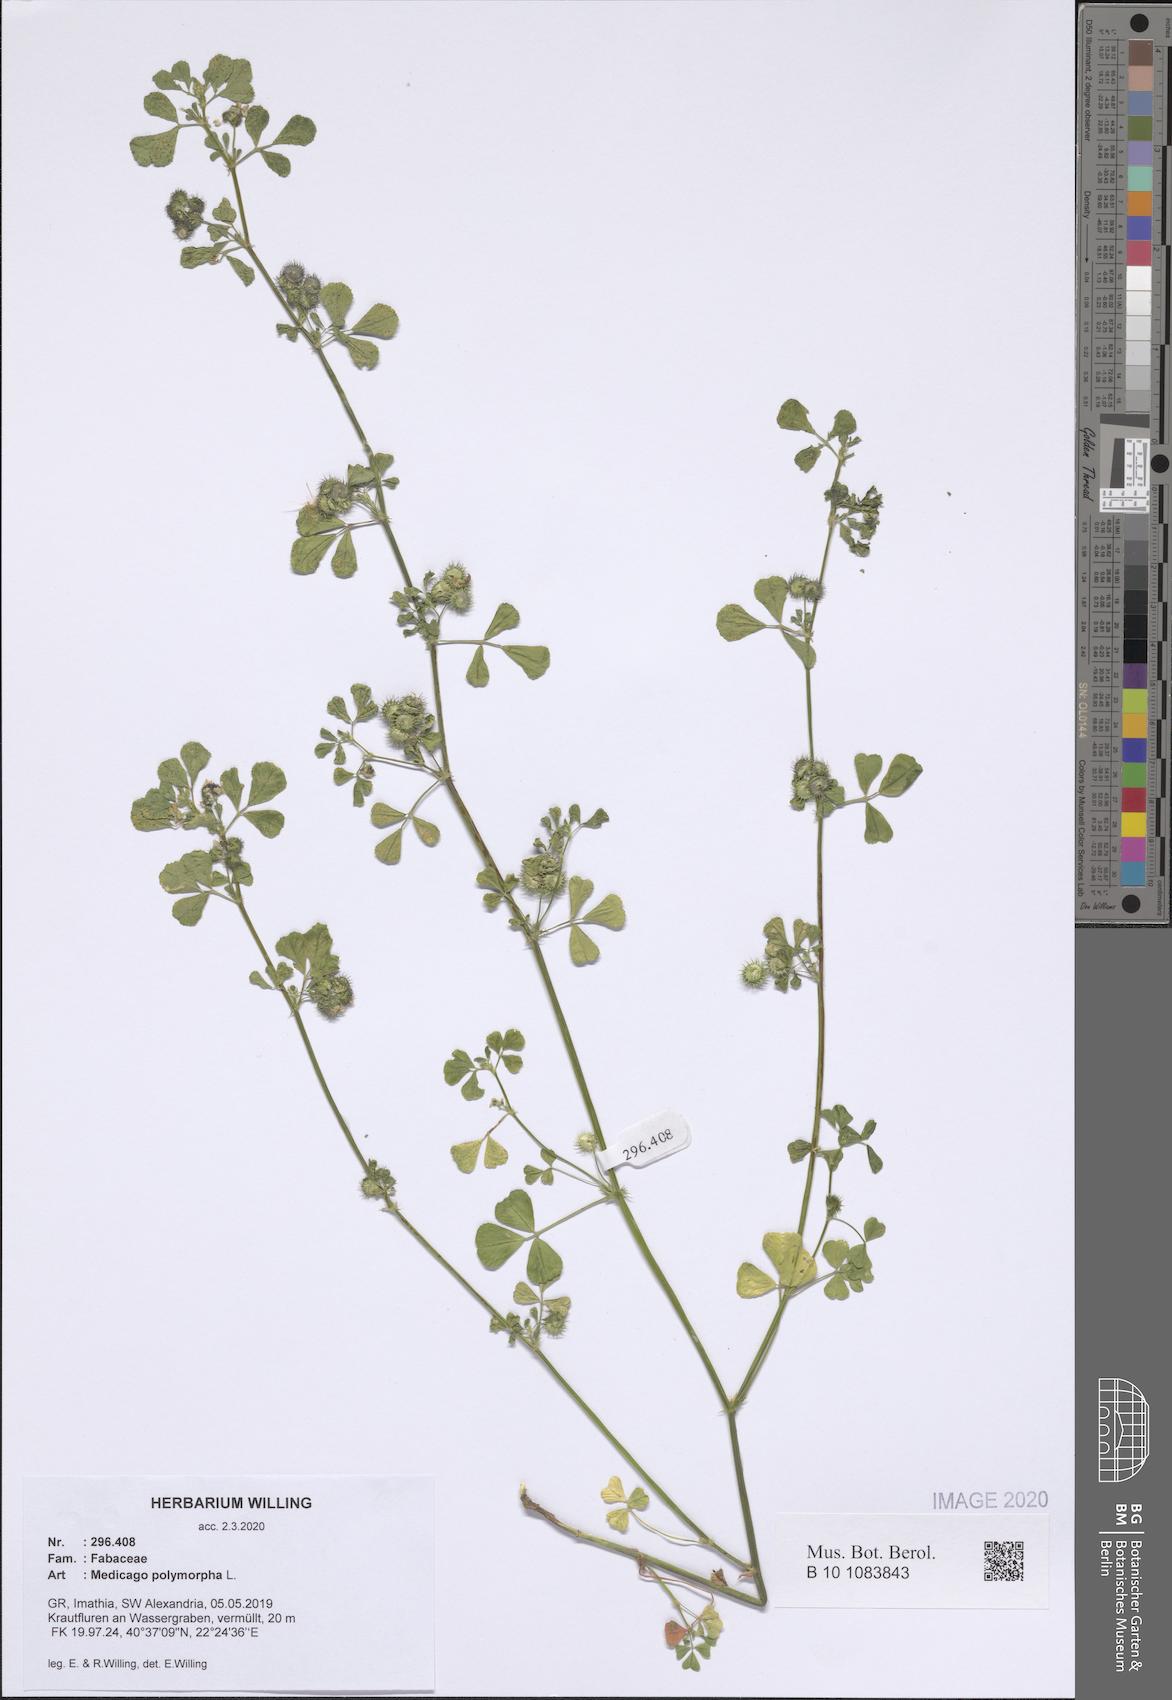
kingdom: Plantae
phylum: Tracheophyta
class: Magnoliopsida
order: Fabales
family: Fabaceae
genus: Medicago
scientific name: Medicago polymorpha
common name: Burclover
